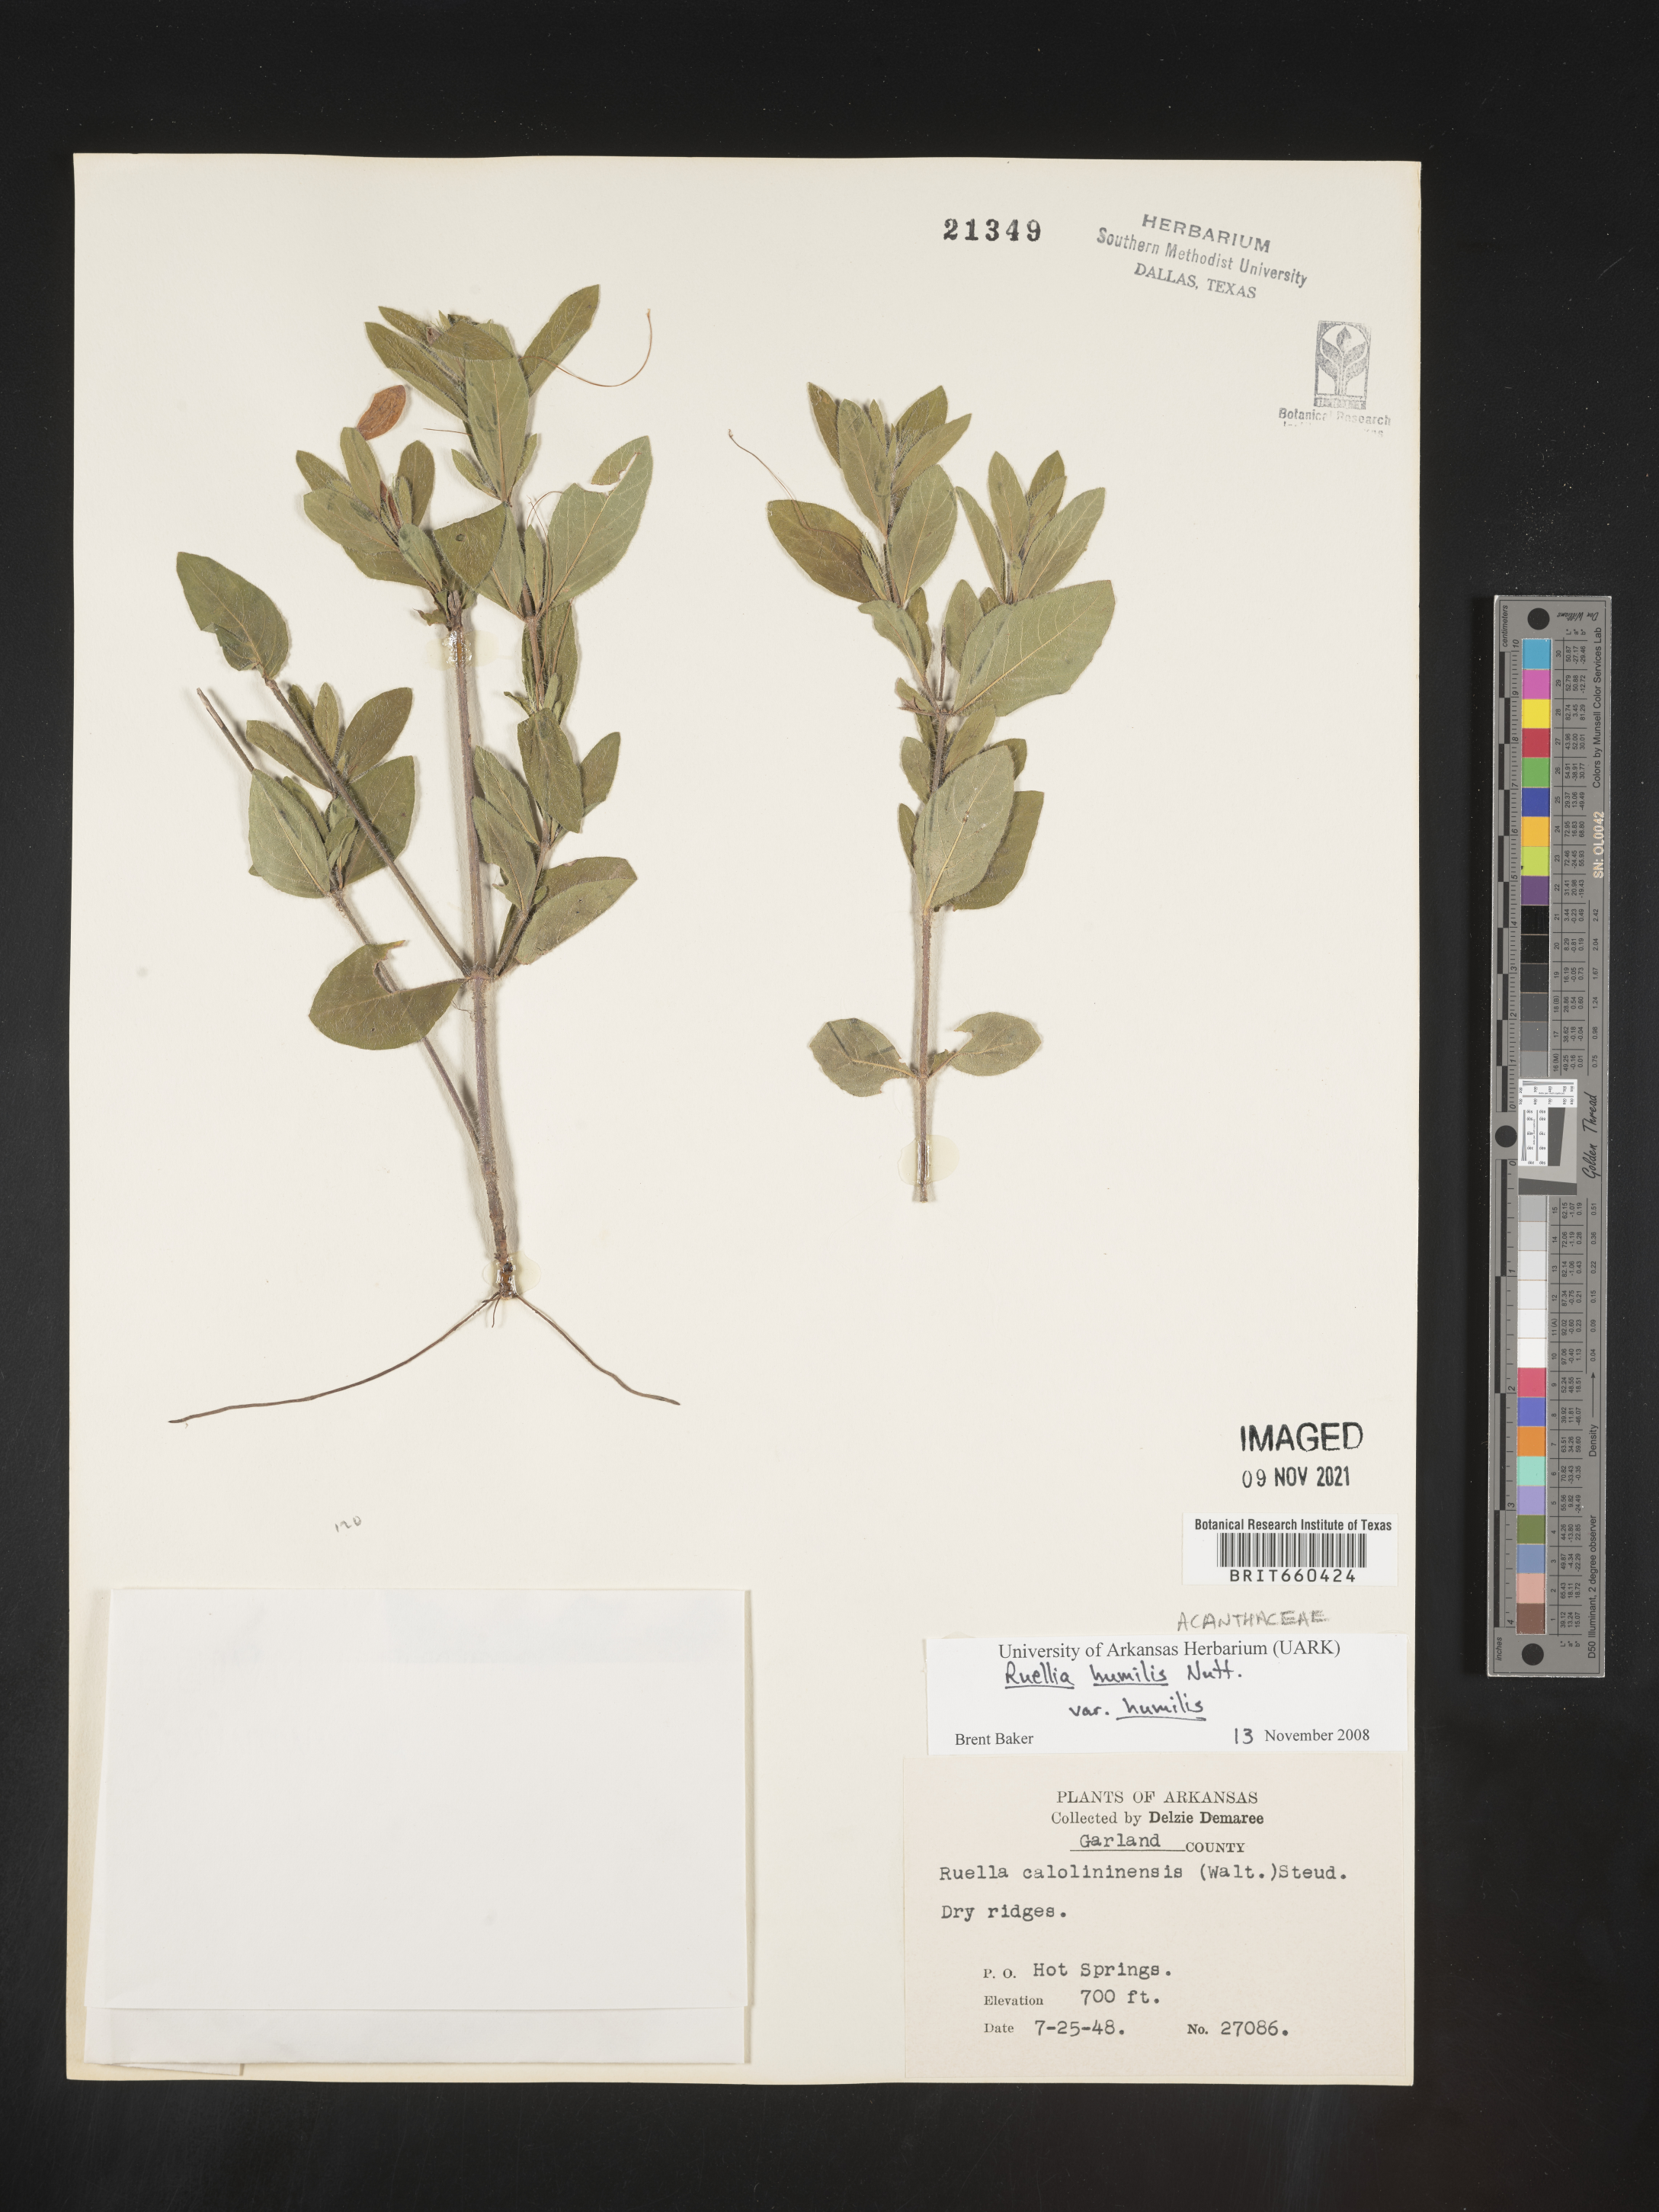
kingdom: Plantae
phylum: Tracheophyta
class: Magnoliopsida
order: Lamiales
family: Acanthaceae
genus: Ruellia
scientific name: Ruellia caroliniensis
